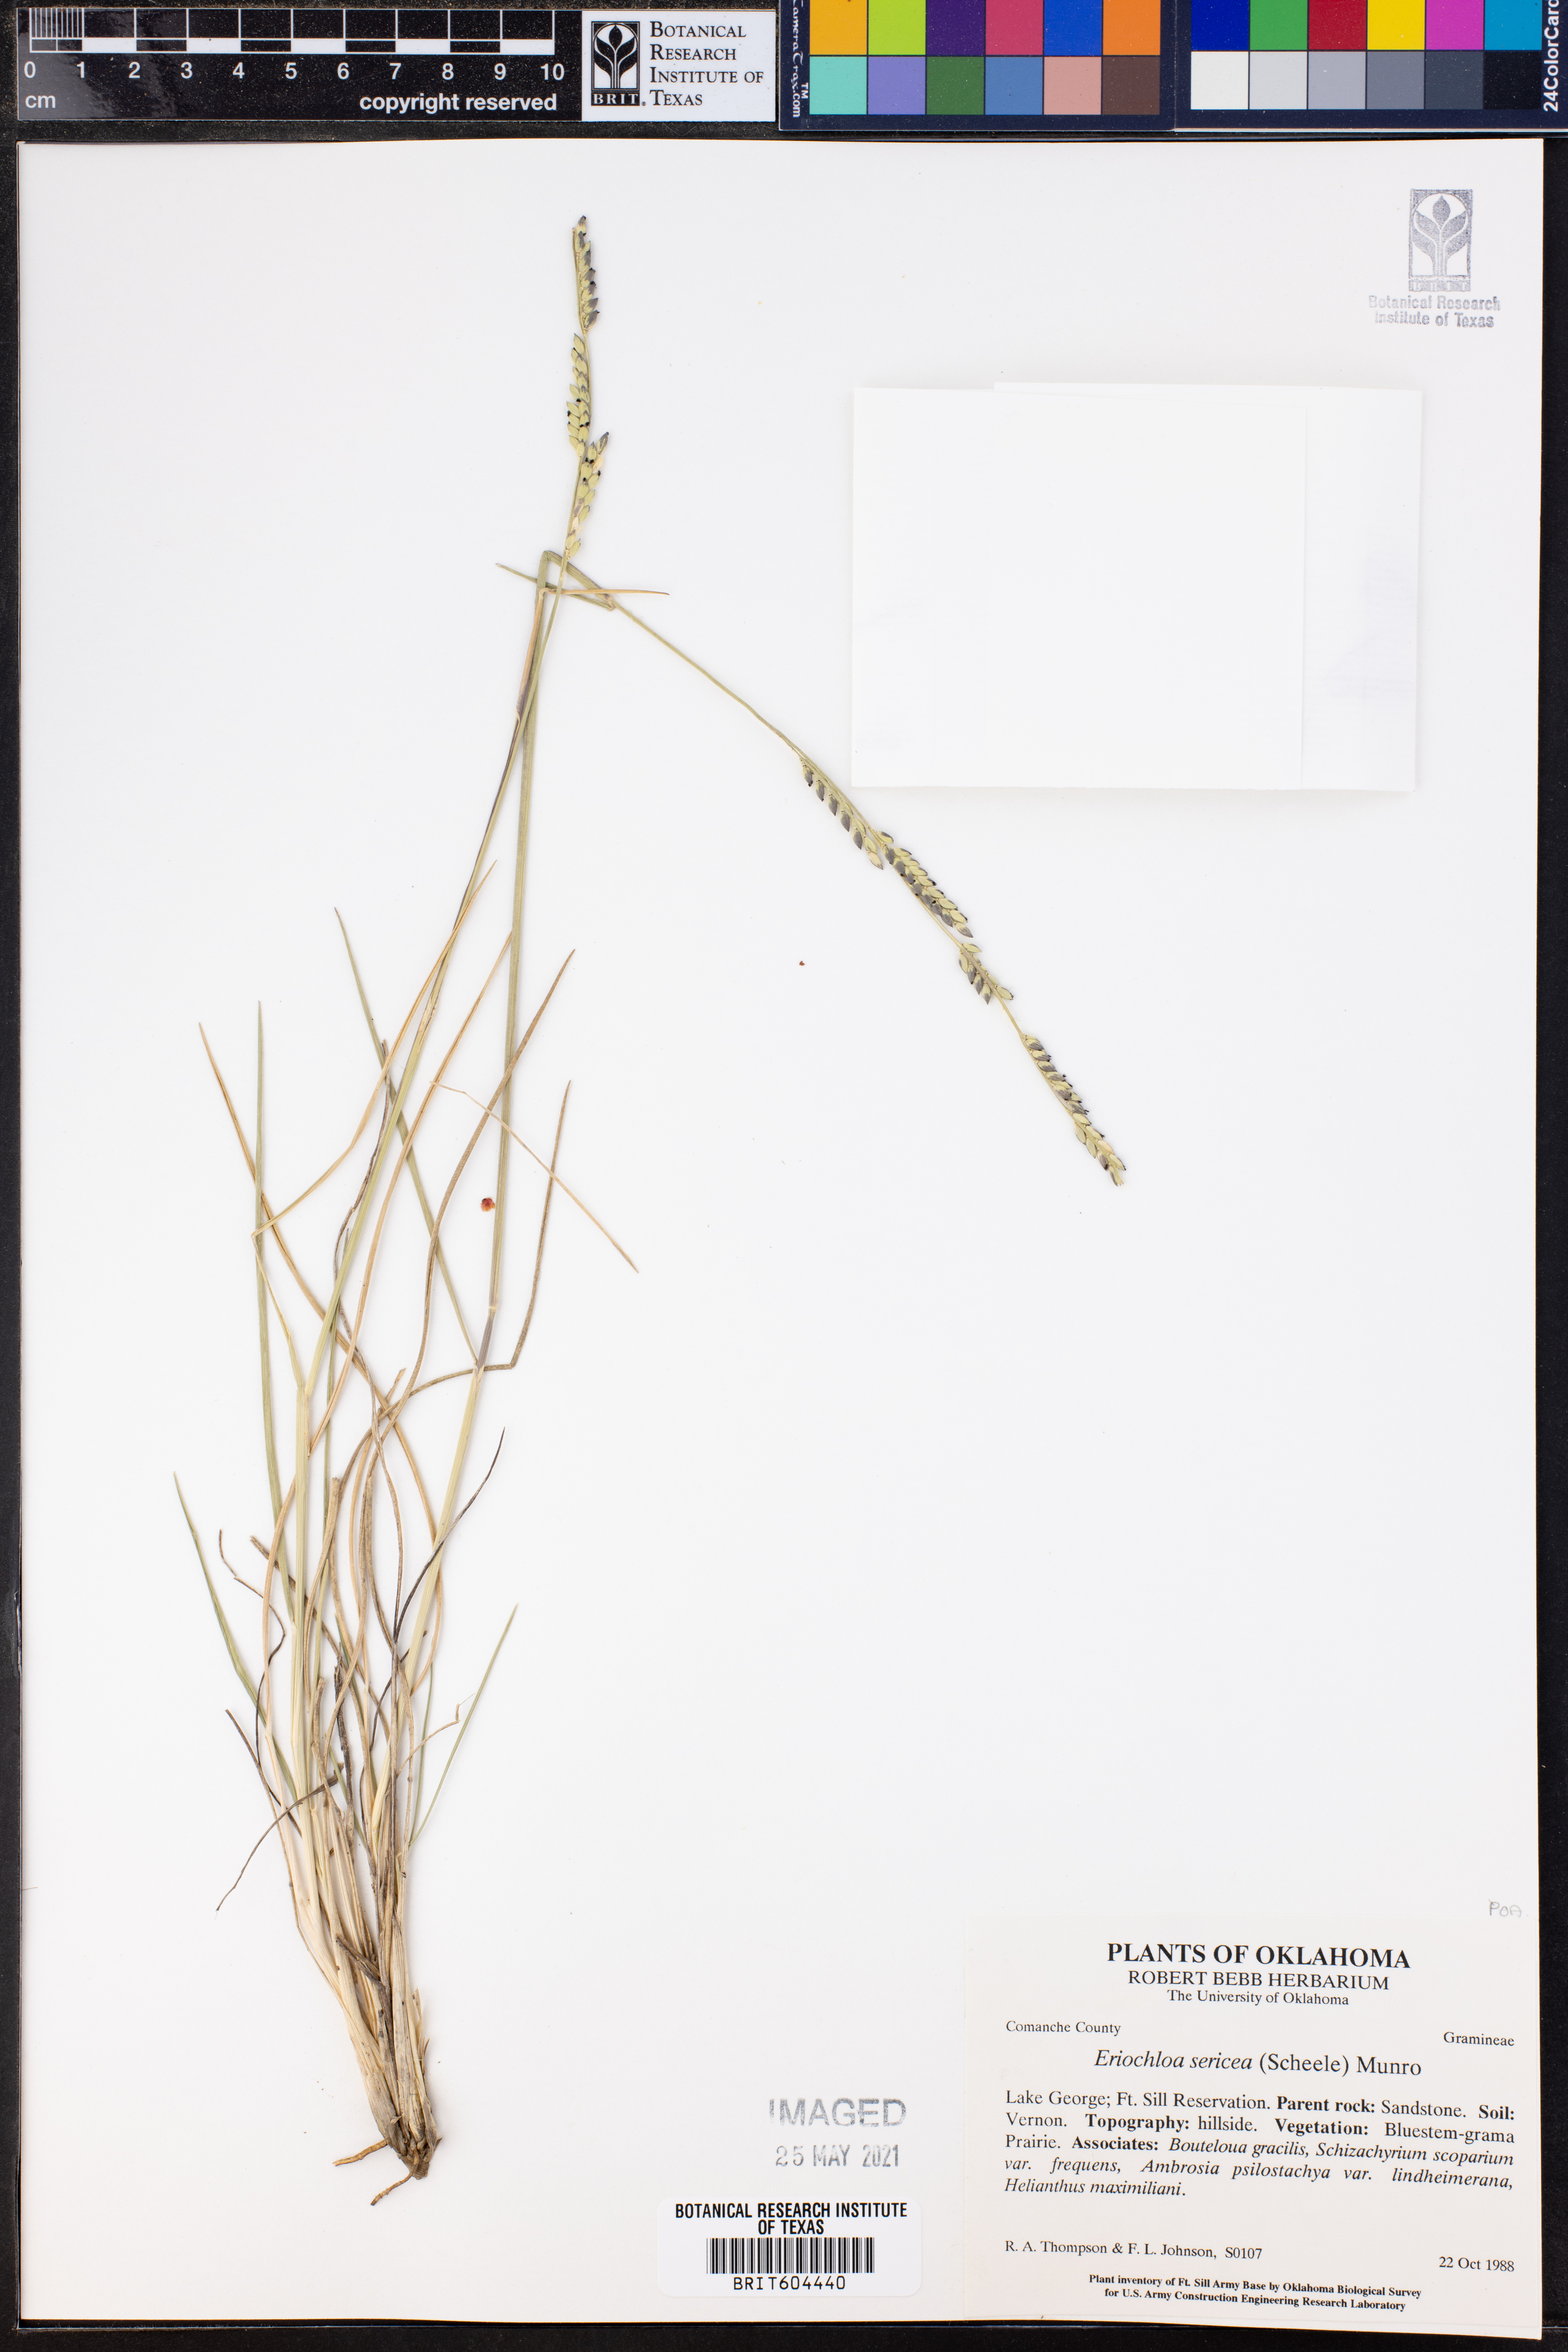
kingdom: Plantae
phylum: Tracheophyta
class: Liliopsida
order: Poales
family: Poaceae
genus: Eriochloa
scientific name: Eriochloa sericea
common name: Texas cup grass
